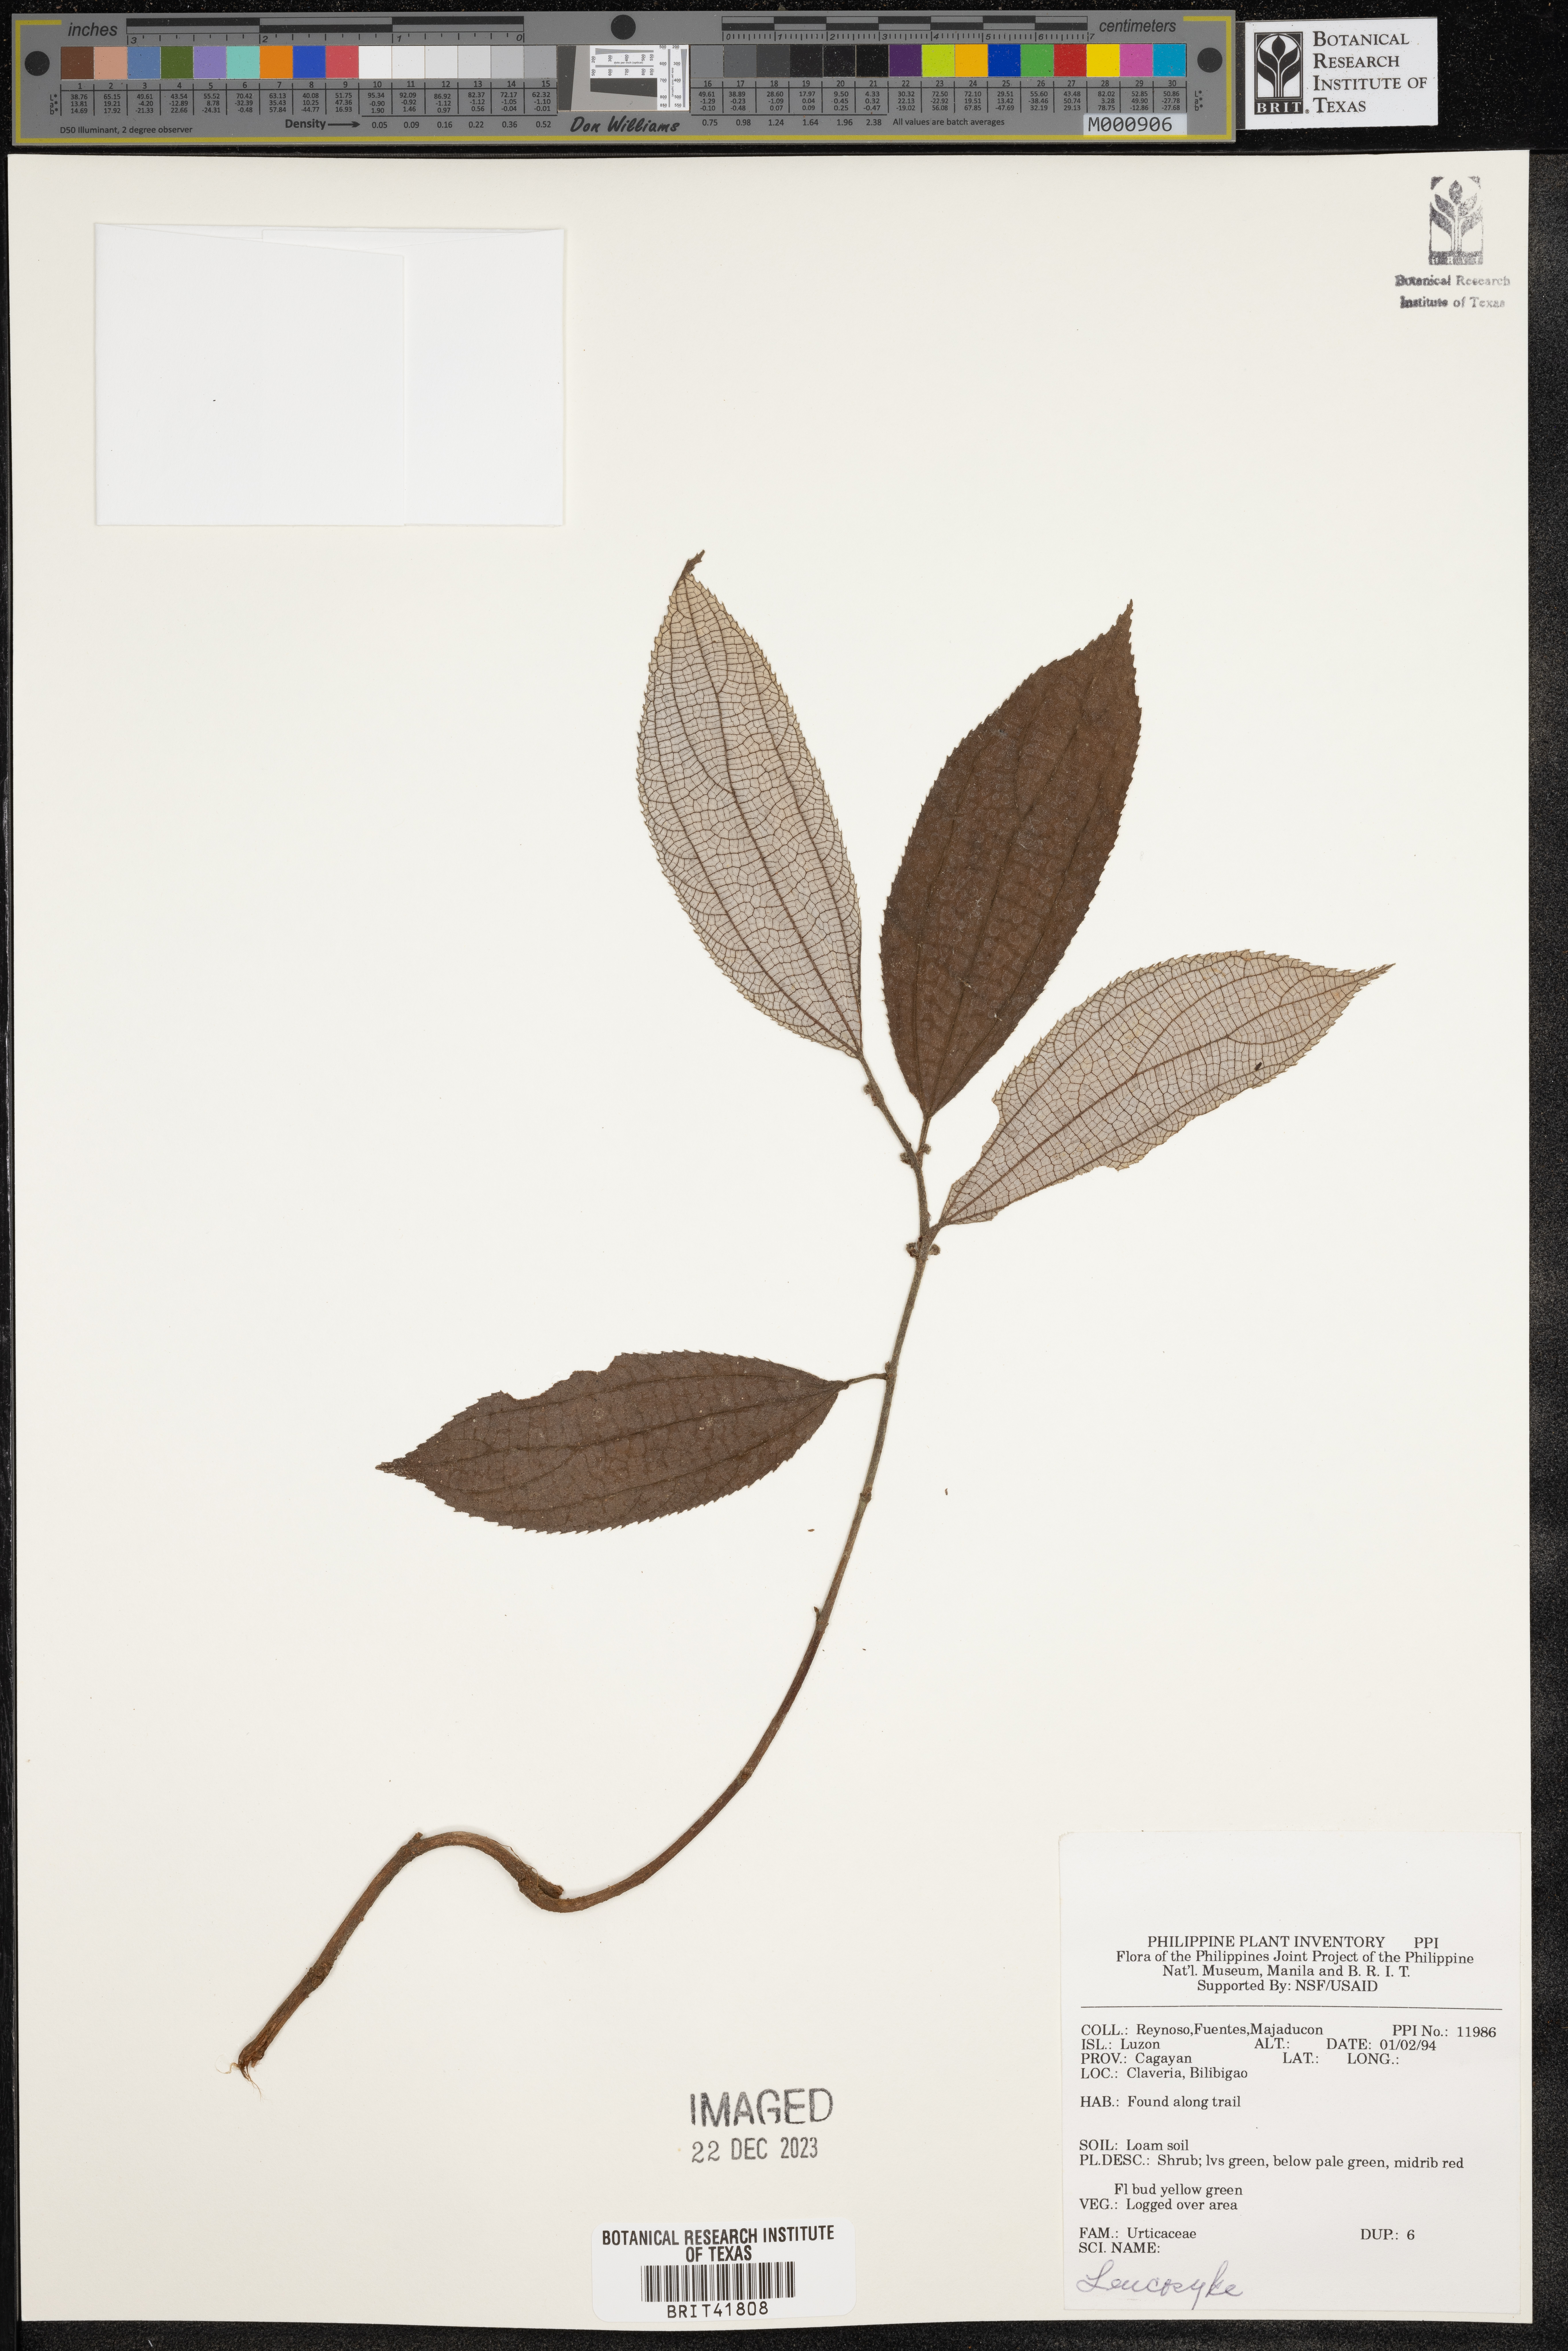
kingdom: Plantae
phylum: Tracheophyta
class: Magnoliopsida
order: Rosales
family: Urticaceae
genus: Leucosyke
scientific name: Leucosyke
